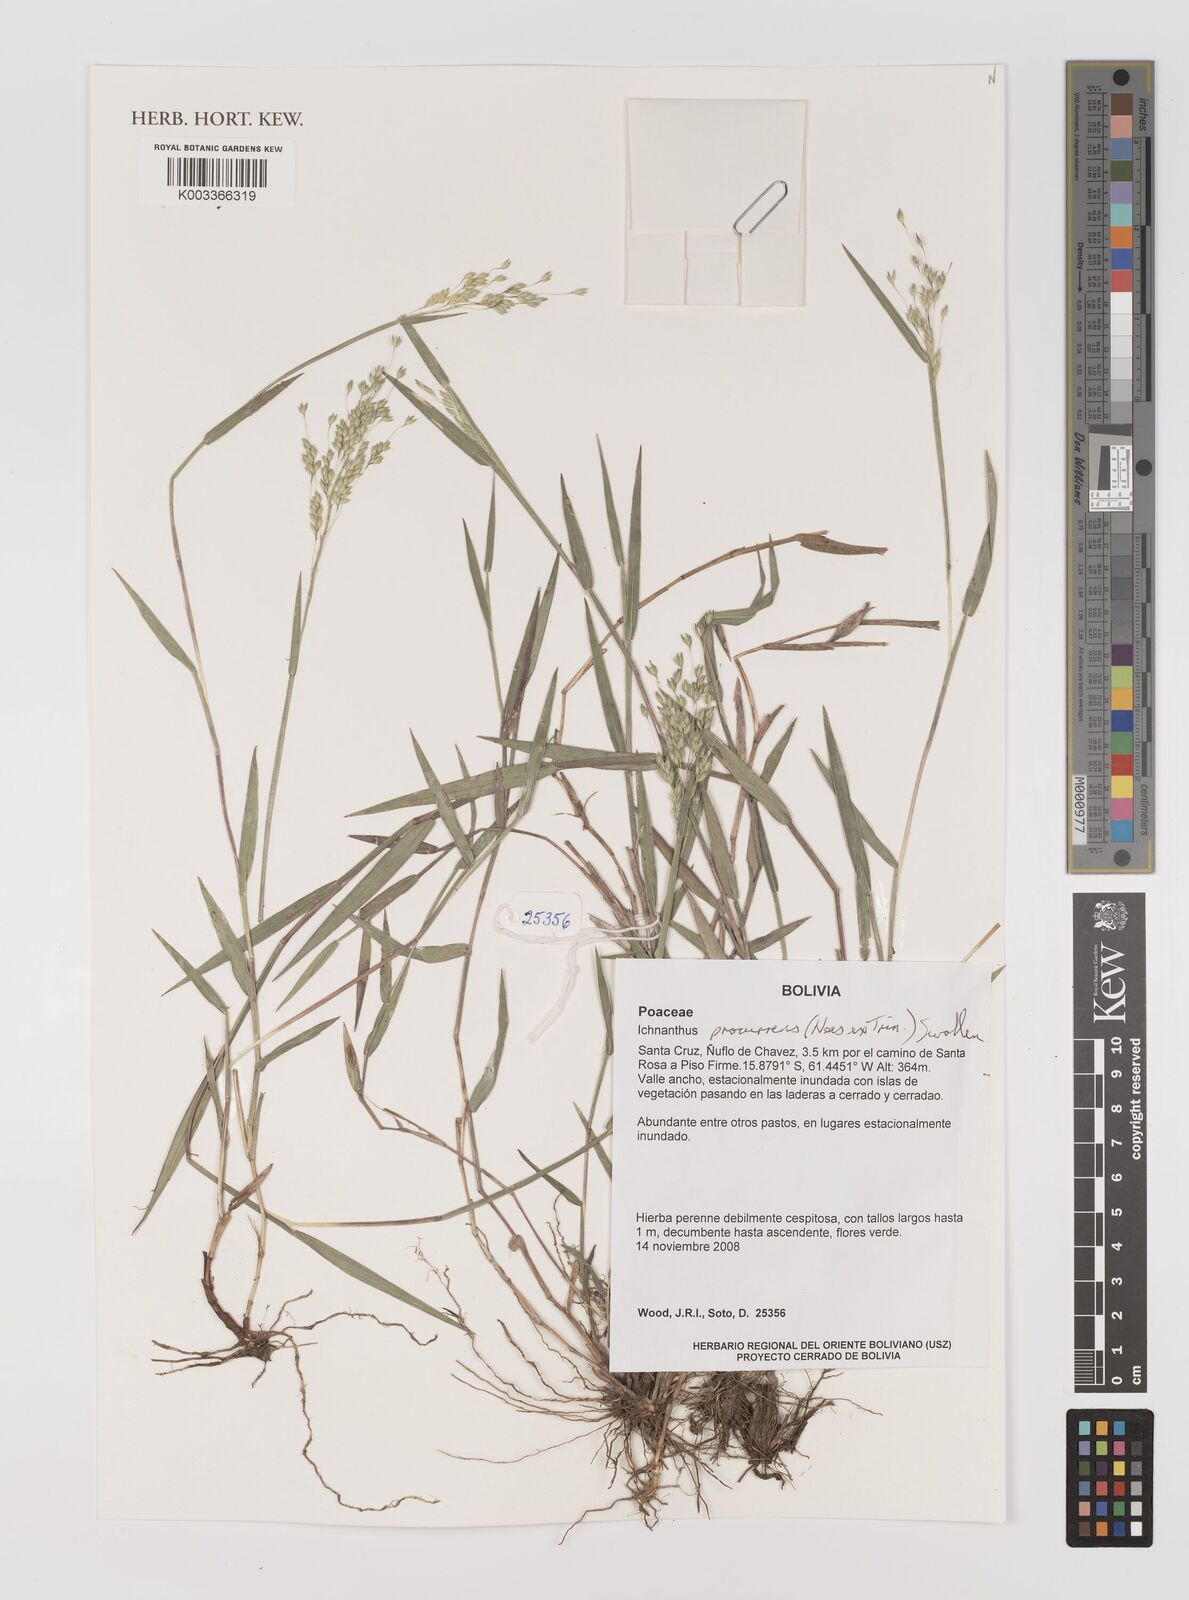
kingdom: Plantae
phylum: Tracheophyta
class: Liliopsida
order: Poales
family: Poaceae
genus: Oedochloa
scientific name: Oedochloa procurrens
